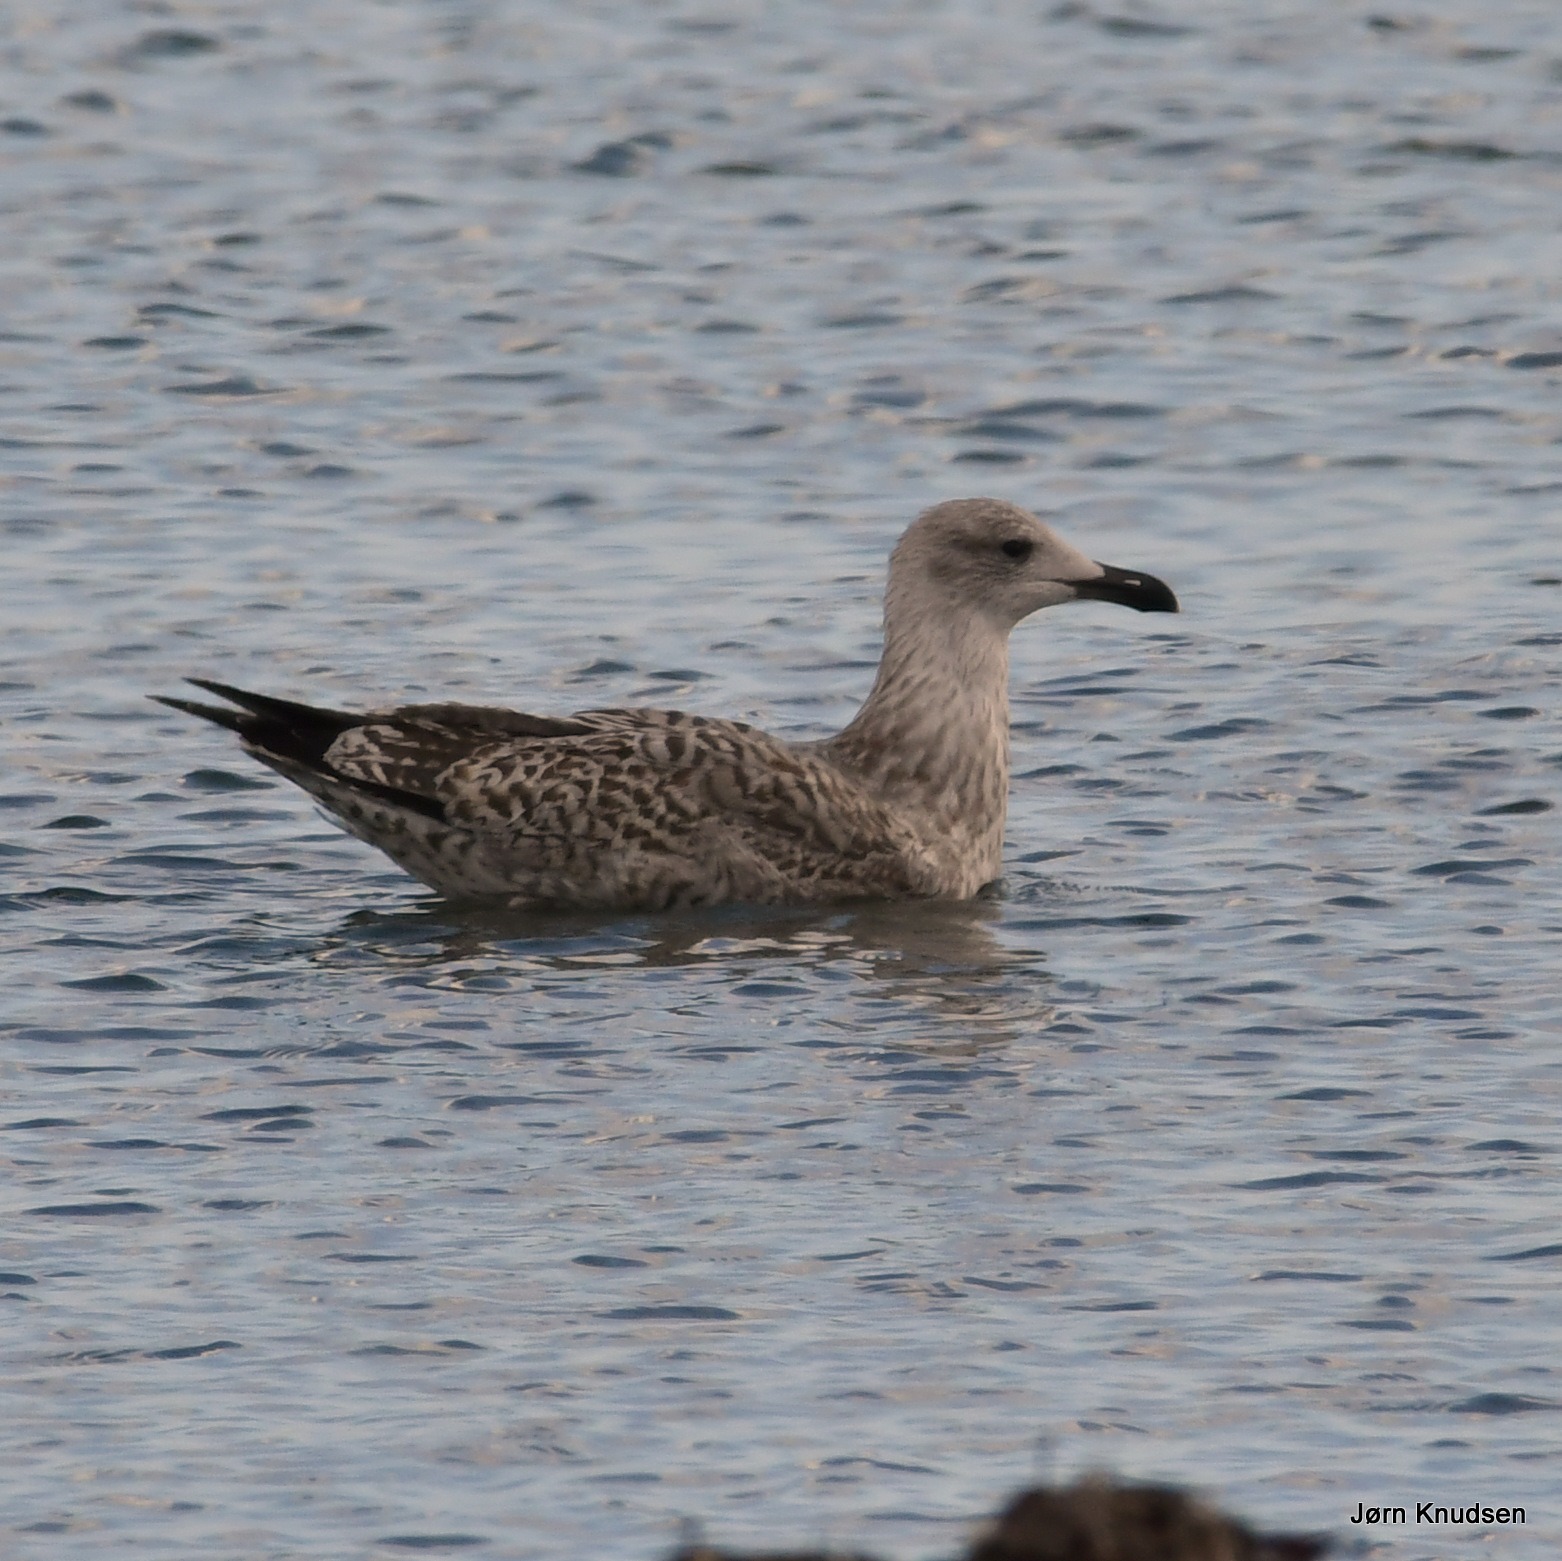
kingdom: Animalia
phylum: Chordata
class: Aves
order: Charadriiformes
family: Laridae
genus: Larus
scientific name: Larus argentatus
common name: Sølvmåge
